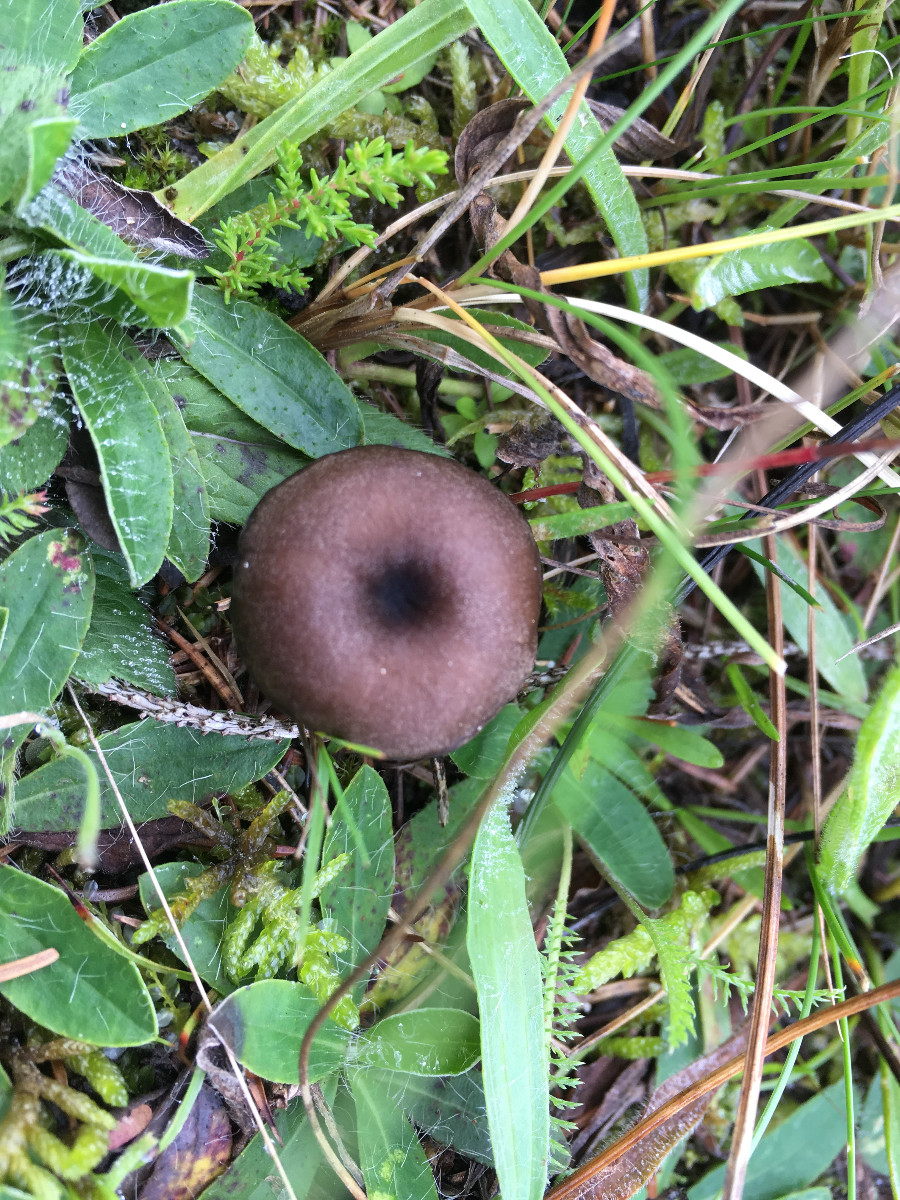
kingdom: Fungi
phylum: Basidiomycota
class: Agaricomycetes
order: Agaricales
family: Entolomataceae
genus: Entoloma
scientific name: Entoloma
